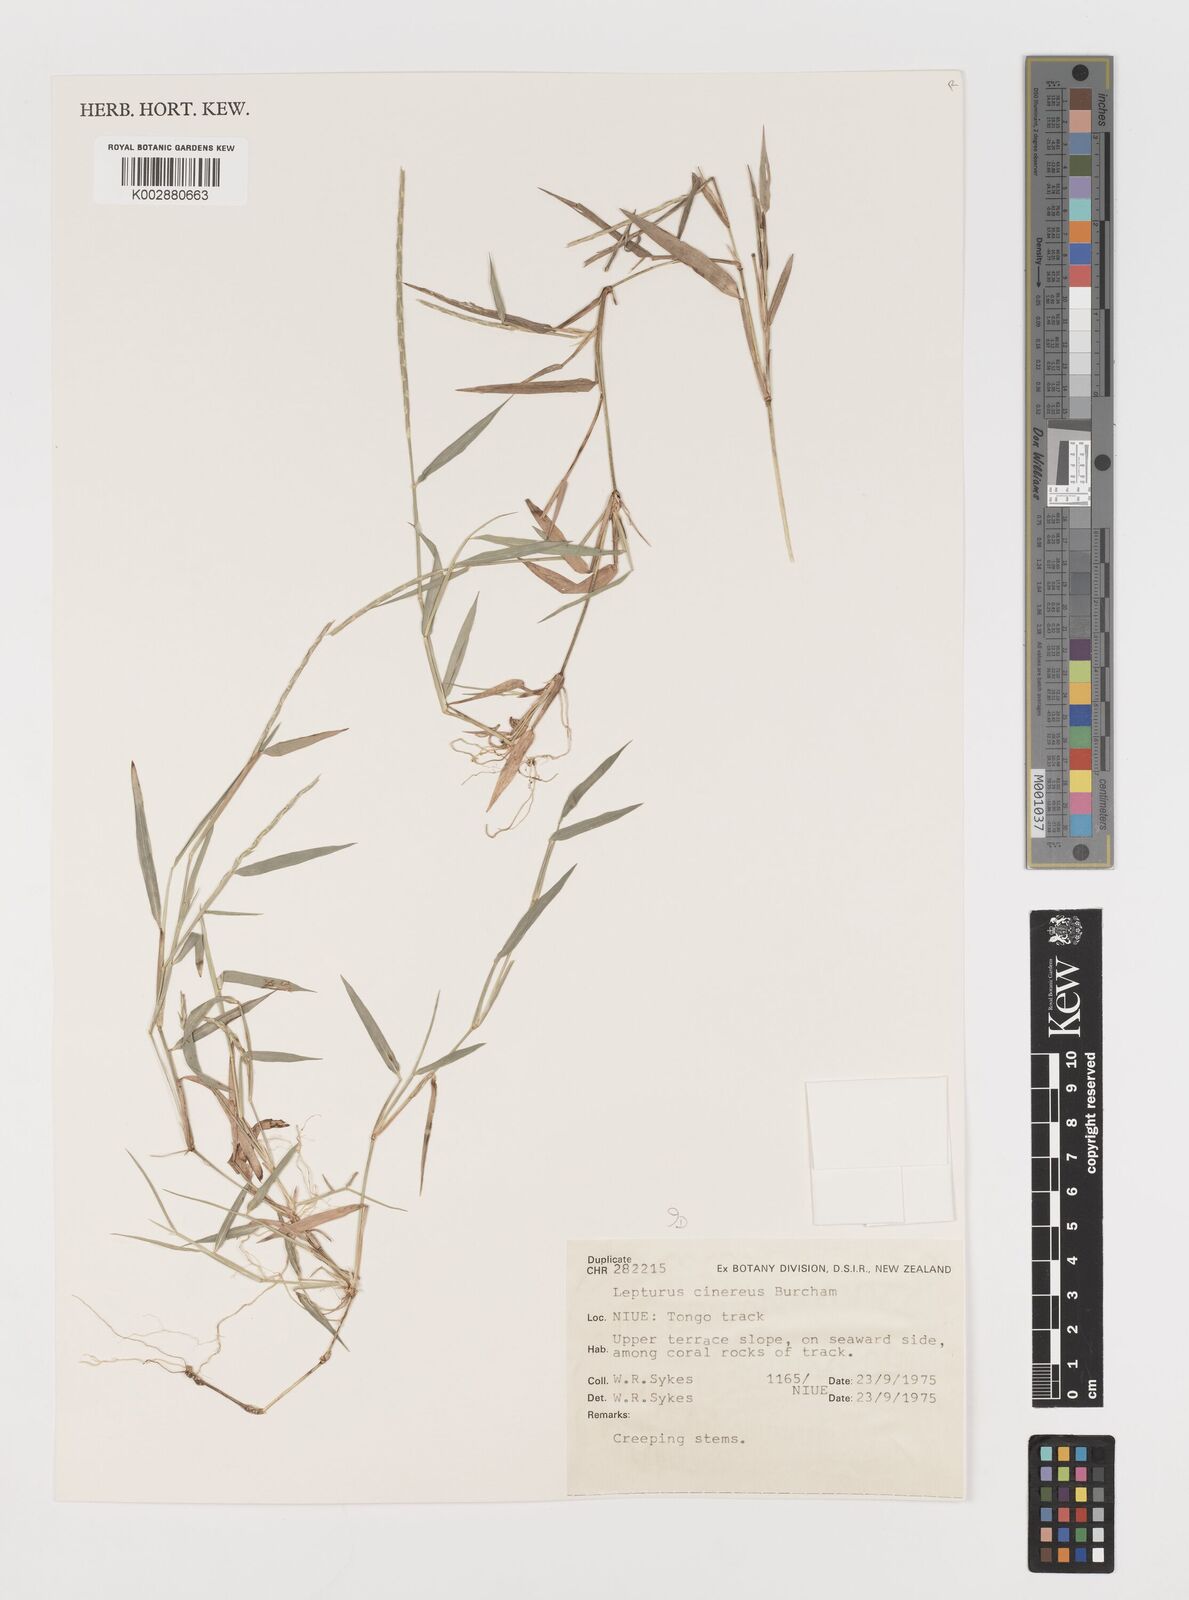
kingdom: Plantae
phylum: Tracheophyta
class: Liliopsida
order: Poales
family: Poaceae
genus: Lepturus
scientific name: Lepturus repens
